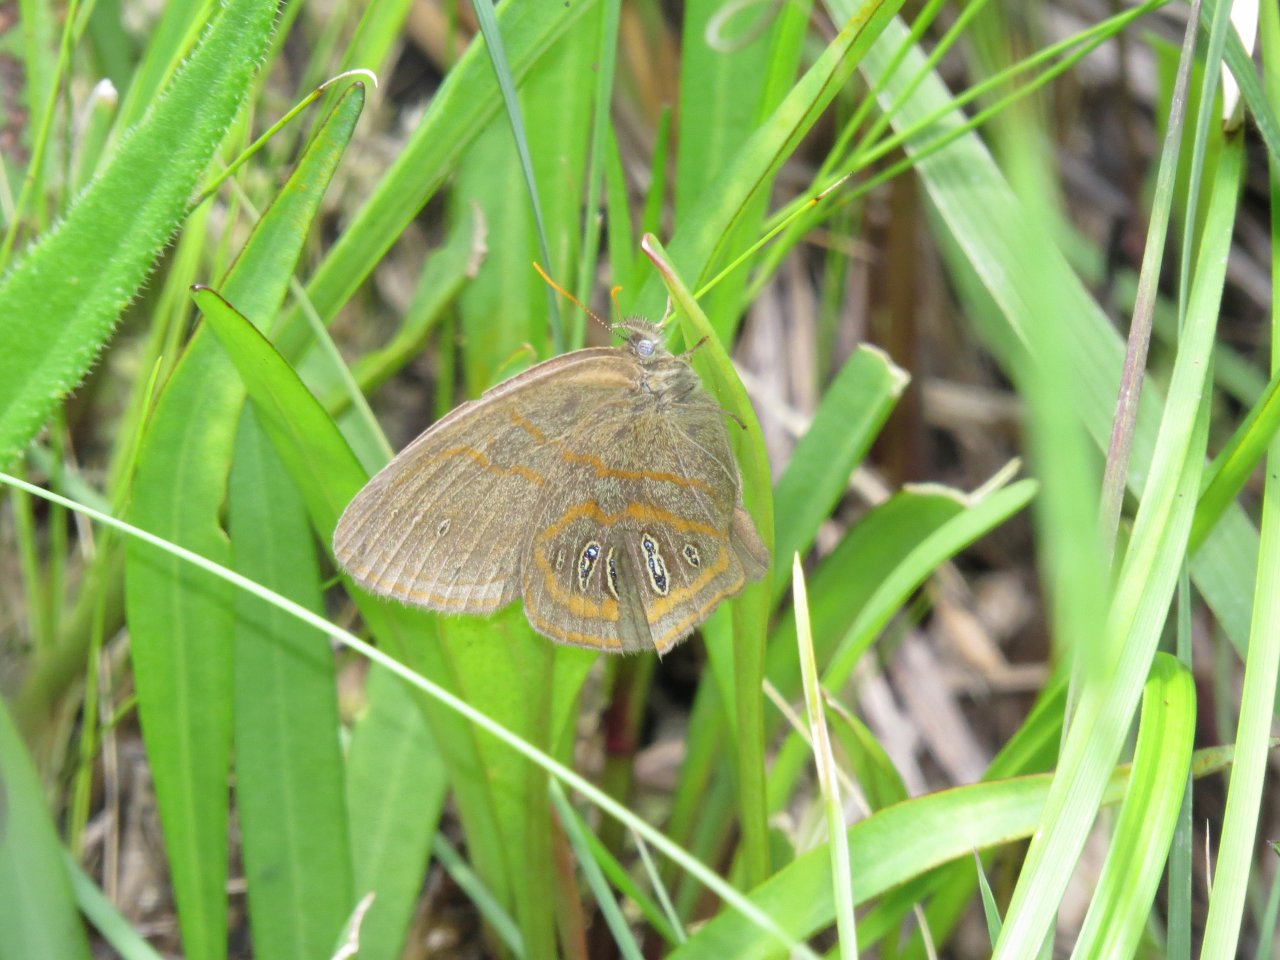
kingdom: Animalia
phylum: Arthropoda
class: Insecta
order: Lepidoptera
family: Nymphalidae
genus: Euptychia
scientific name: Euptychia phocion
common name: Georgia Satyr
